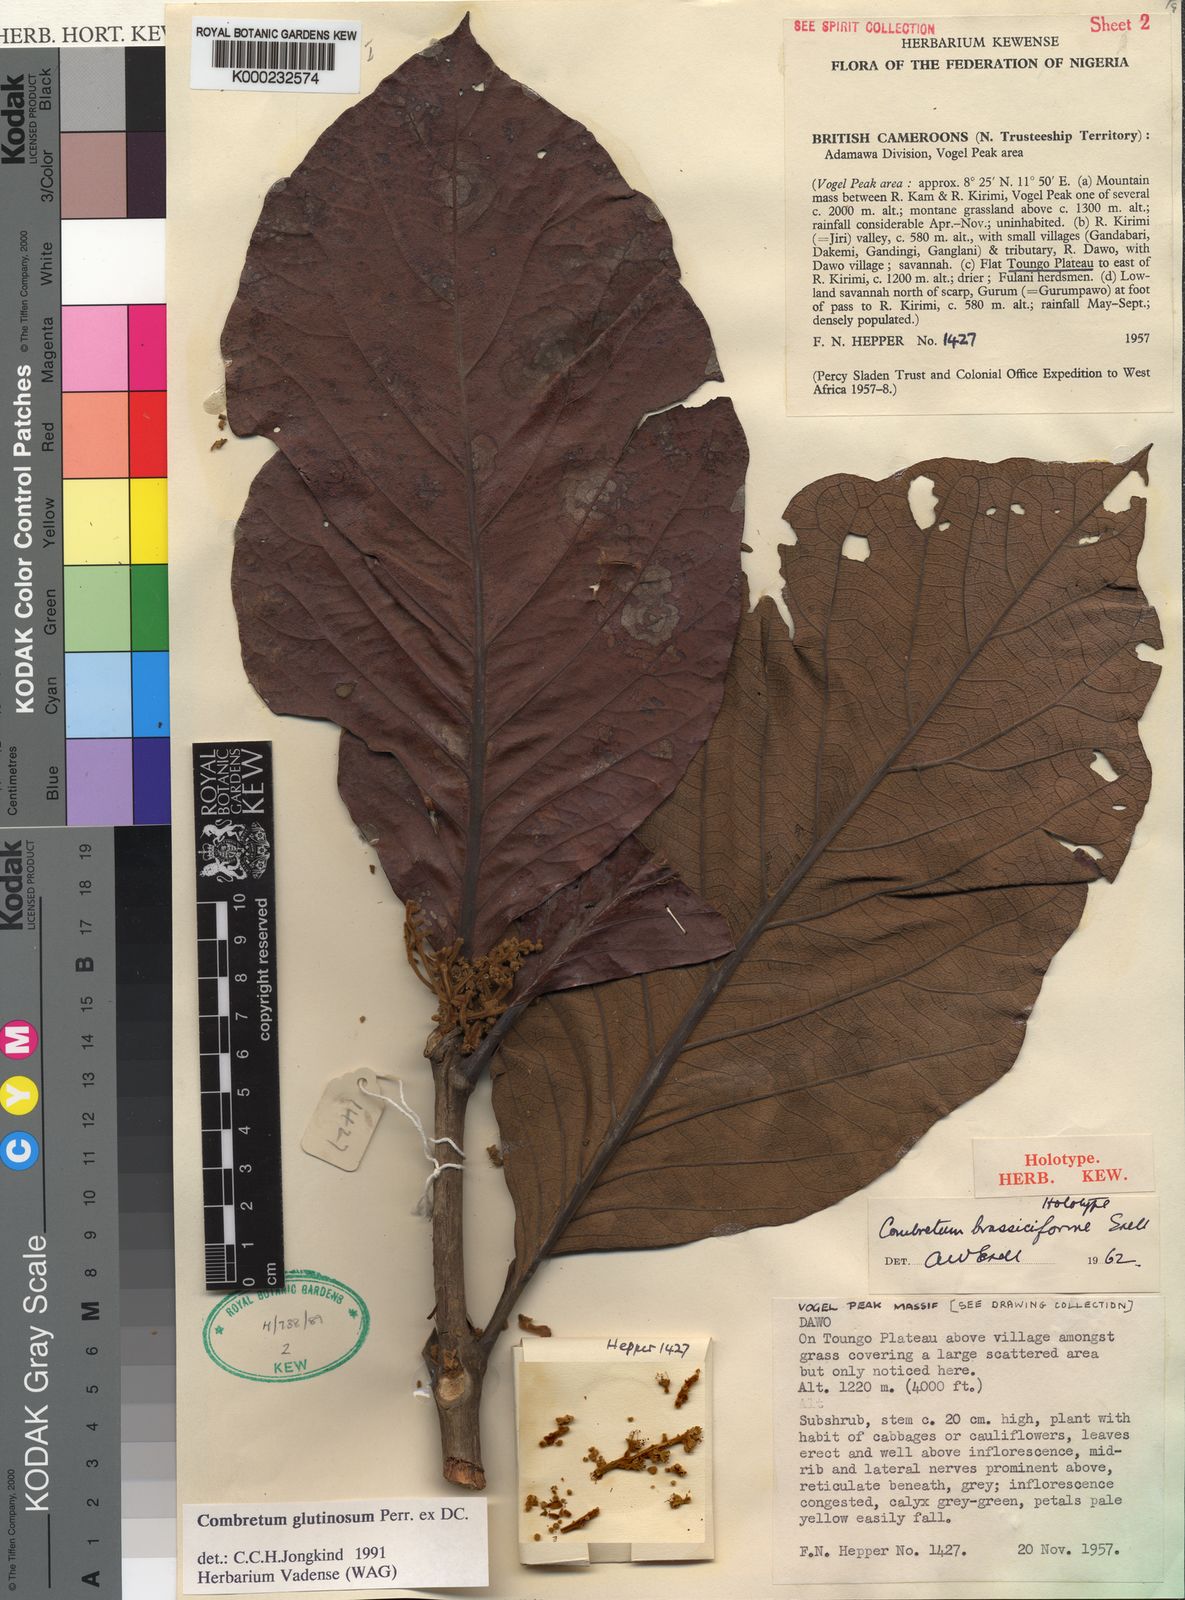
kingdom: Plantae
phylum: Tracheophyta
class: Magnoliopsida
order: Myrtales
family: Combretaceae
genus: Combretum
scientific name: Combretum glutinosum
